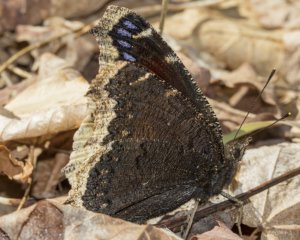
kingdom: Animalia
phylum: Arthropoda
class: Insecta
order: Lepidoptera
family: Nymphalidae
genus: Nymphalis
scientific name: Nymphalis antiopa
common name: Mourning Cloak
